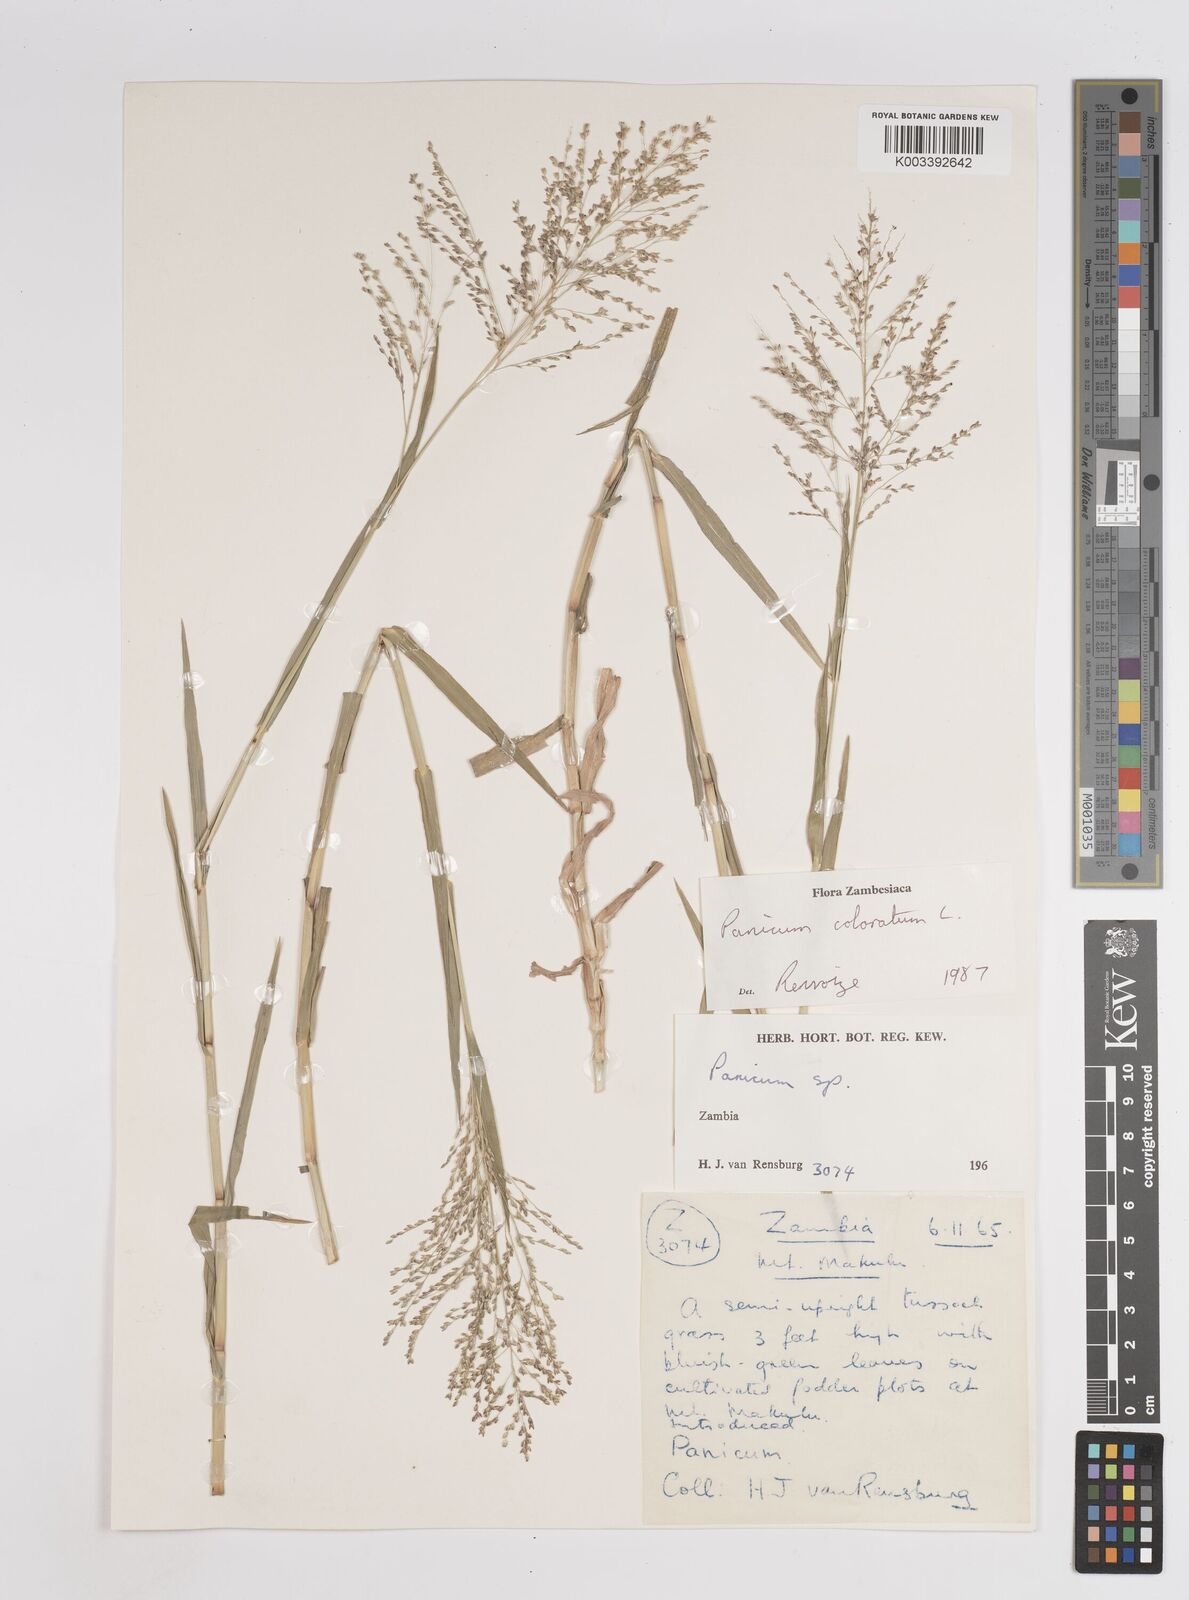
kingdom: Plantae
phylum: Tracheophyta
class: Liliopsida
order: Poales
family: Poaceae
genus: Panicum
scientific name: Panicum
